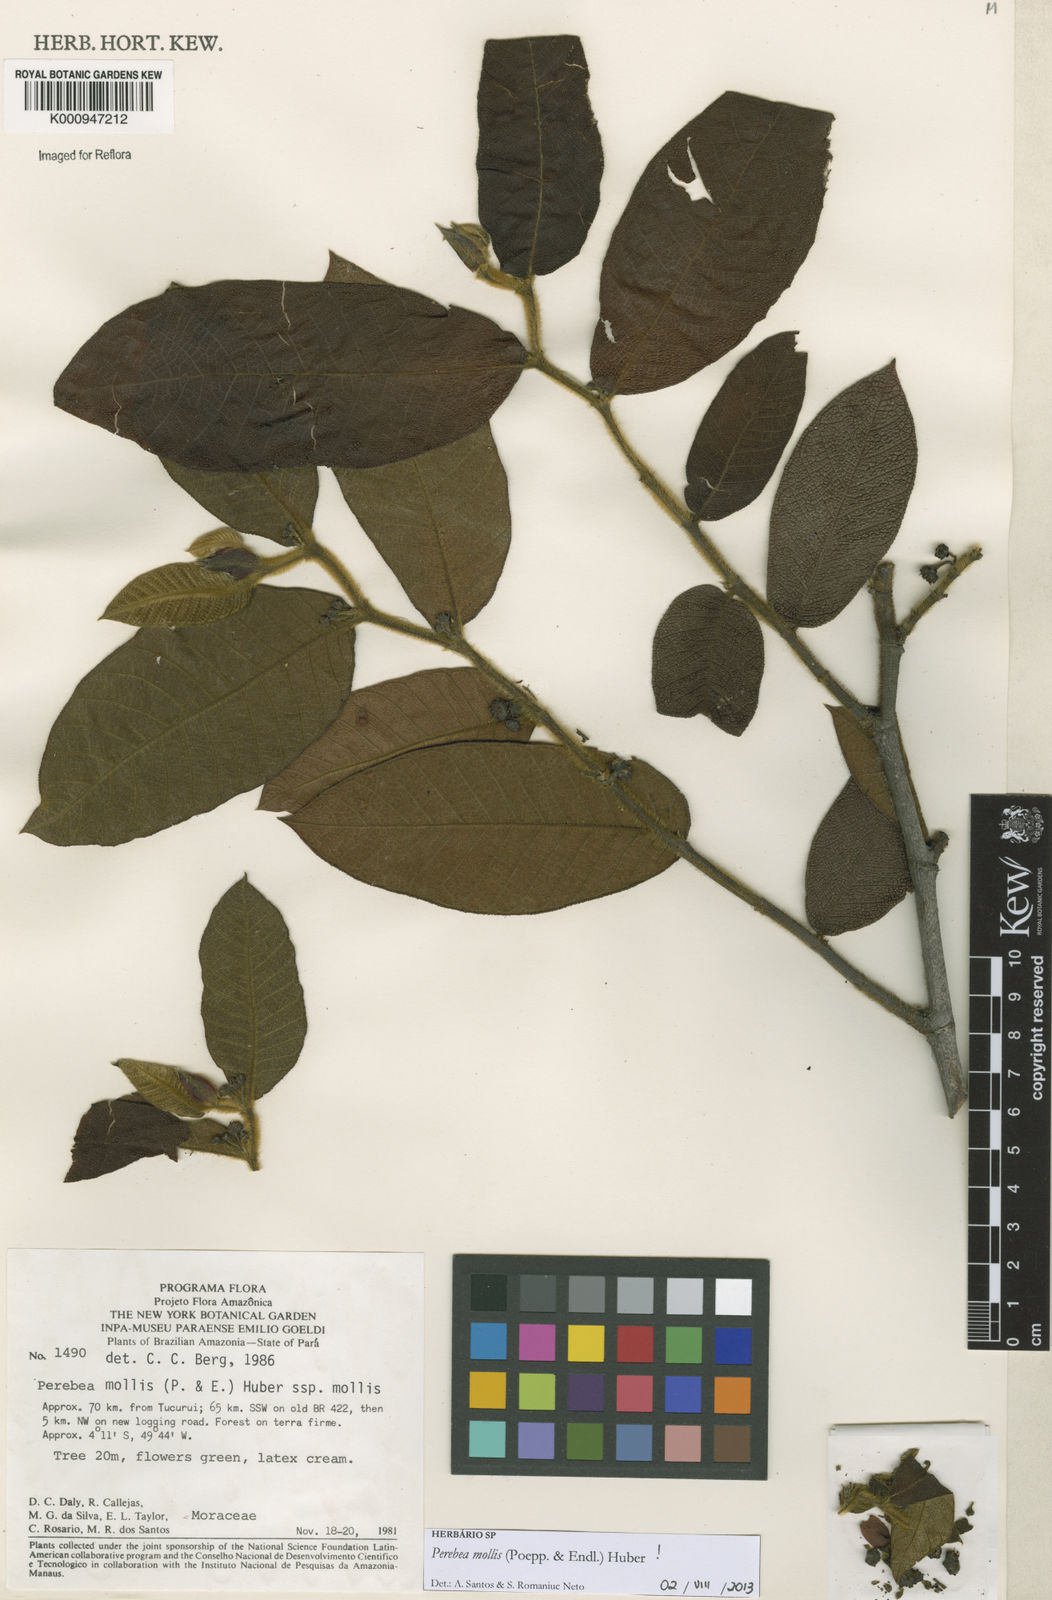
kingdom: Plantae
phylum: Tracheophyta
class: Magnoliopsida
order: Rosales
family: Moraceae
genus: Perebea
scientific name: Perebea mollis
